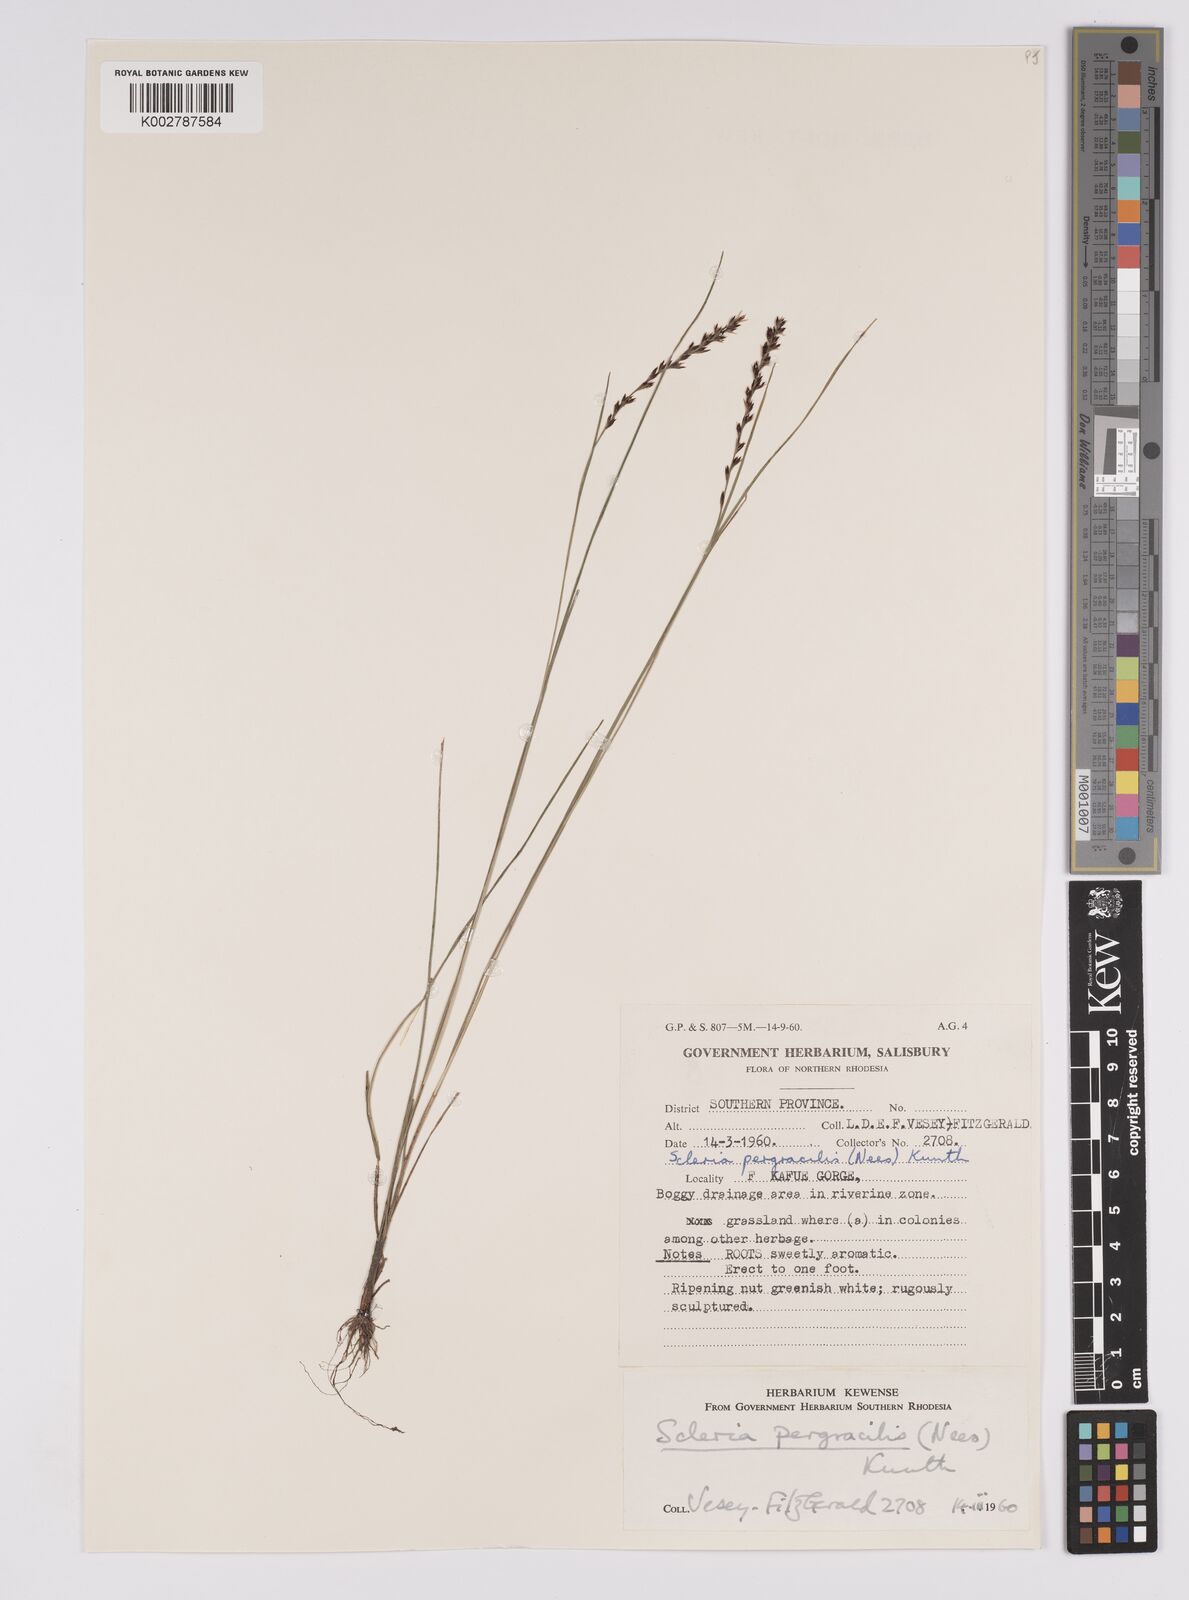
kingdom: Plantae
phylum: Tracheophyta
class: Liliopsida
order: Poales
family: Cyperaceae
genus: Scleria
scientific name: Scleria pergracilis
